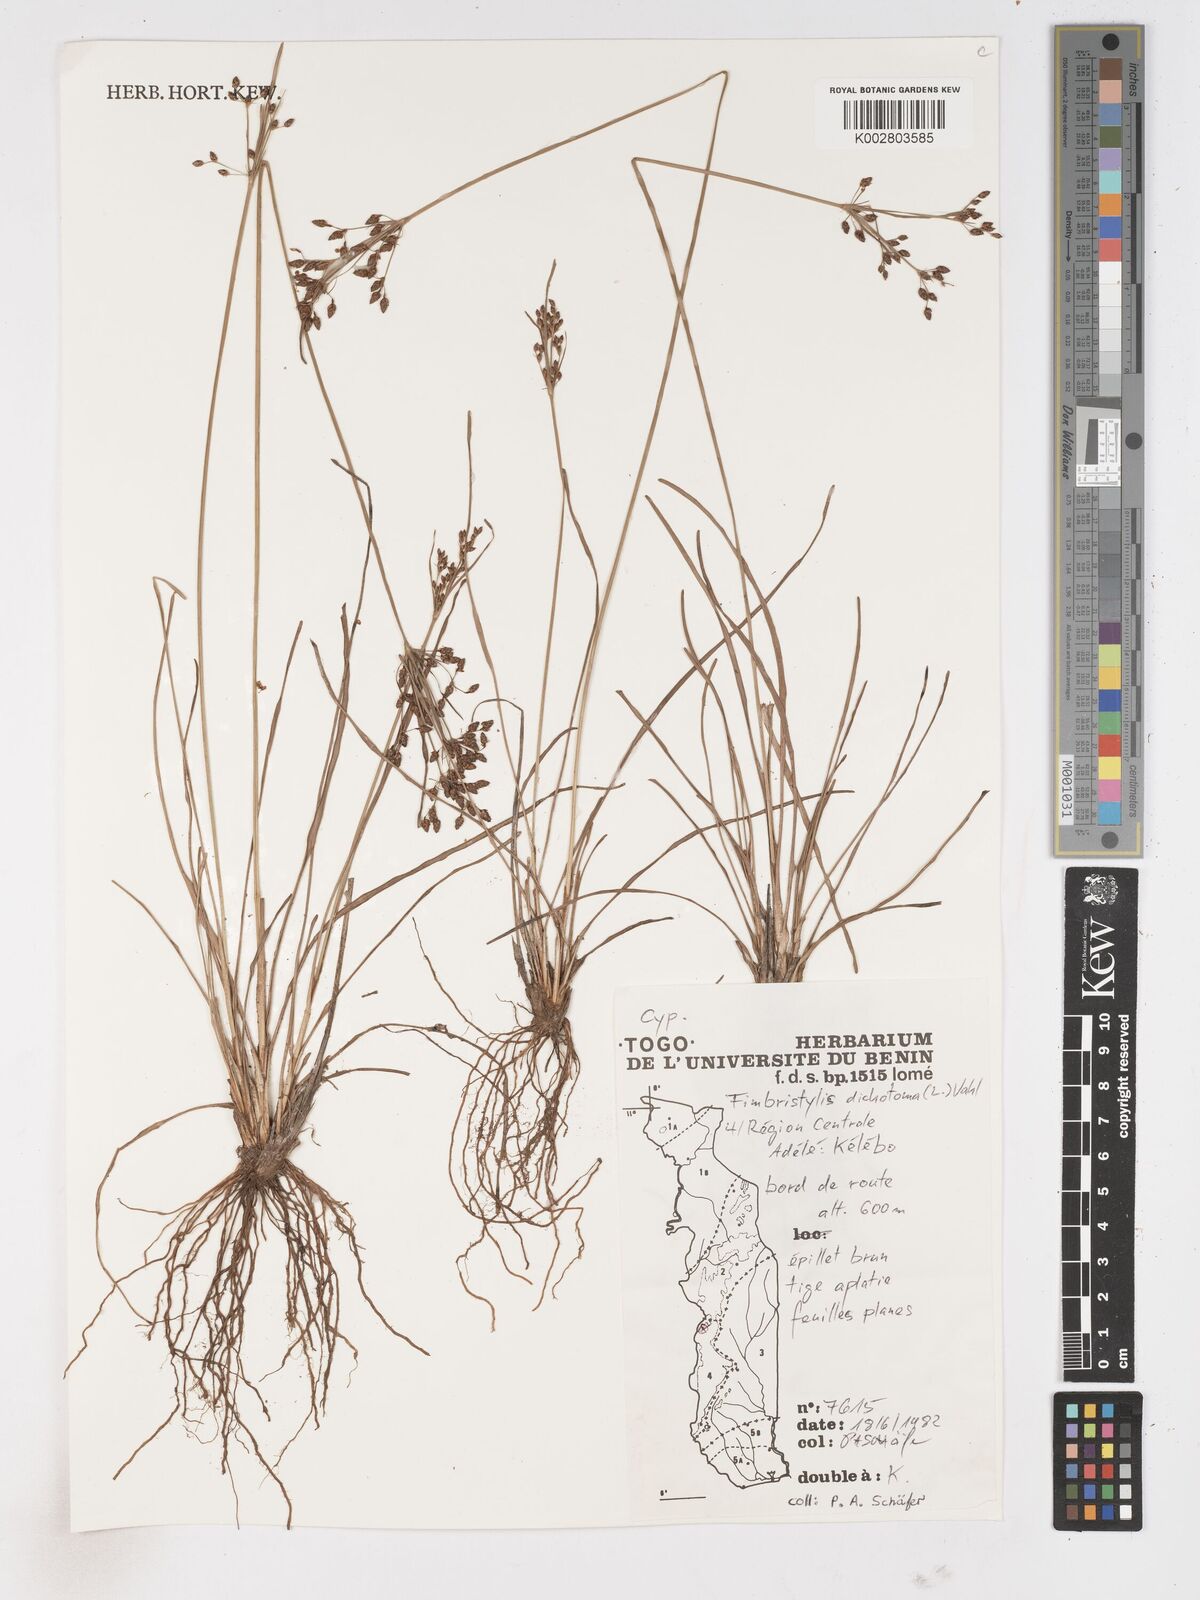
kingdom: Plantae
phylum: Tracheophyta
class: Liliopsida
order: Poales
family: Cyperaceae
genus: Fimbristylis
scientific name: Fimbristylis dichotoma
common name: Forked fimbry
